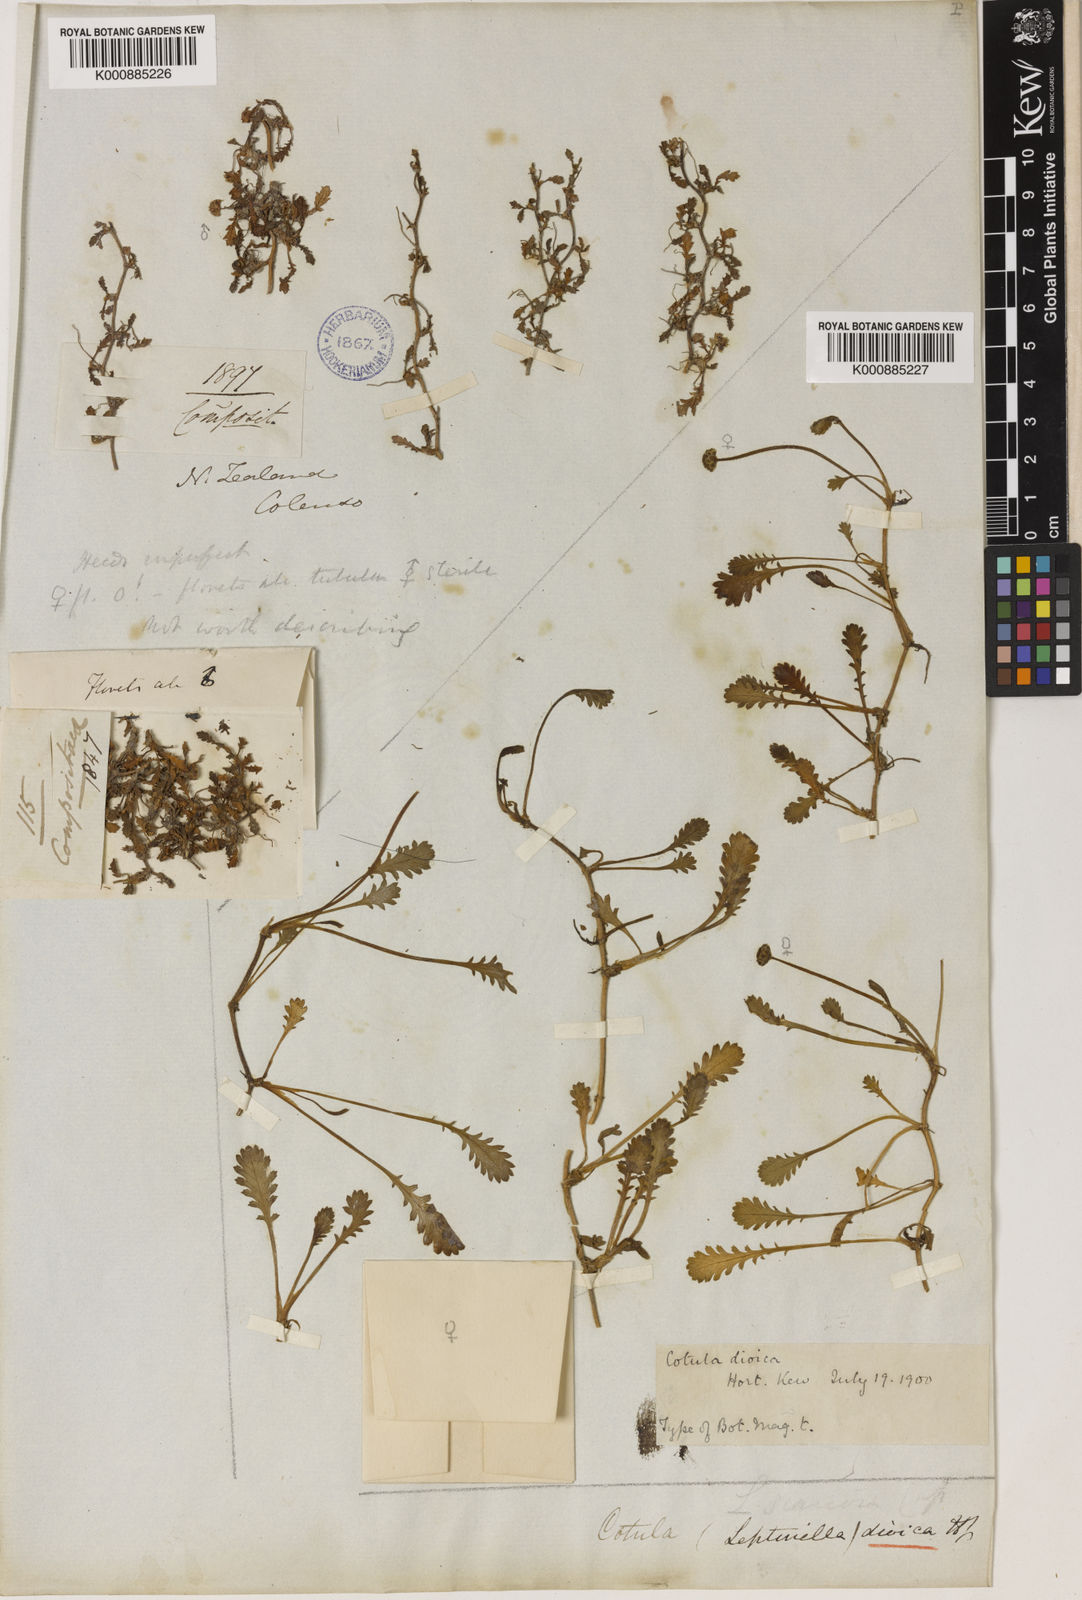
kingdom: Plantae
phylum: Tracheophyta
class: Magnoliopsida
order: Asterales
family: Asteraceae
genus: Leptinella
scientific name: Leptinella dioica
